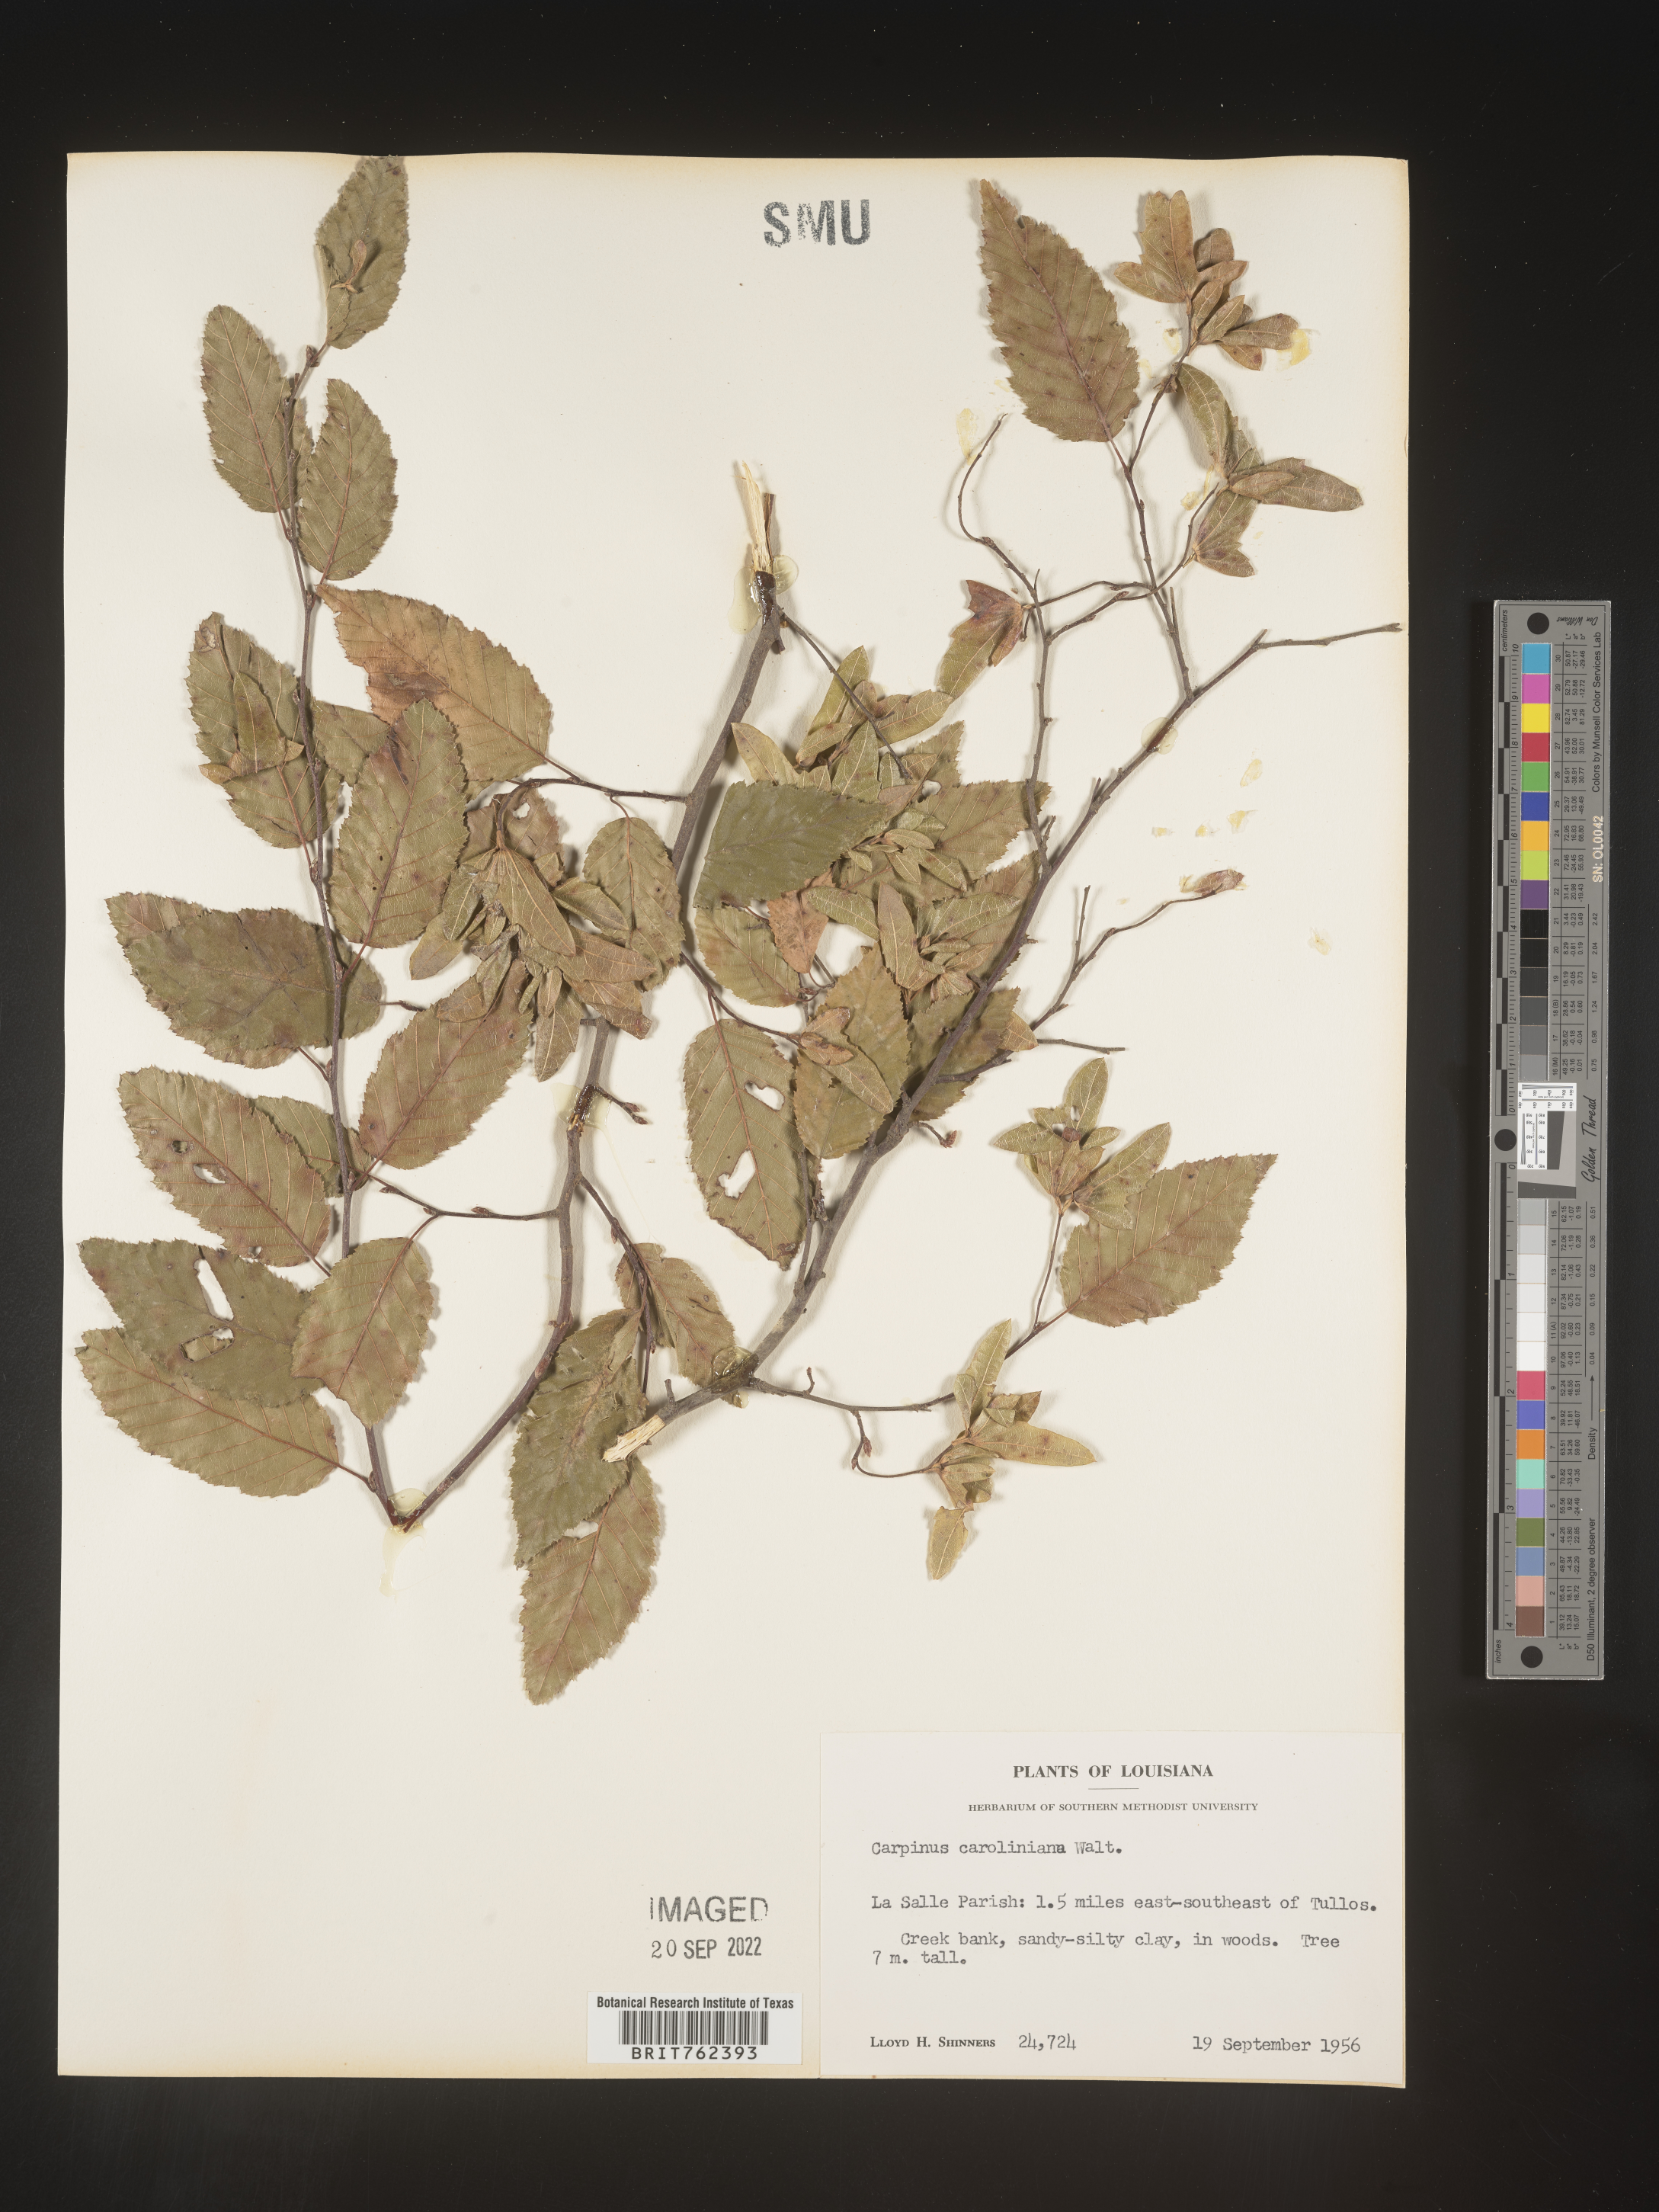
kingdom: Plantae
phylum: Tracheophyta
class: Magnoliopsida
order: Fagales
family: Betulaceae
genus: Carpinus
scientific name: Carpinus caroliniana
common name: American hornbeam
